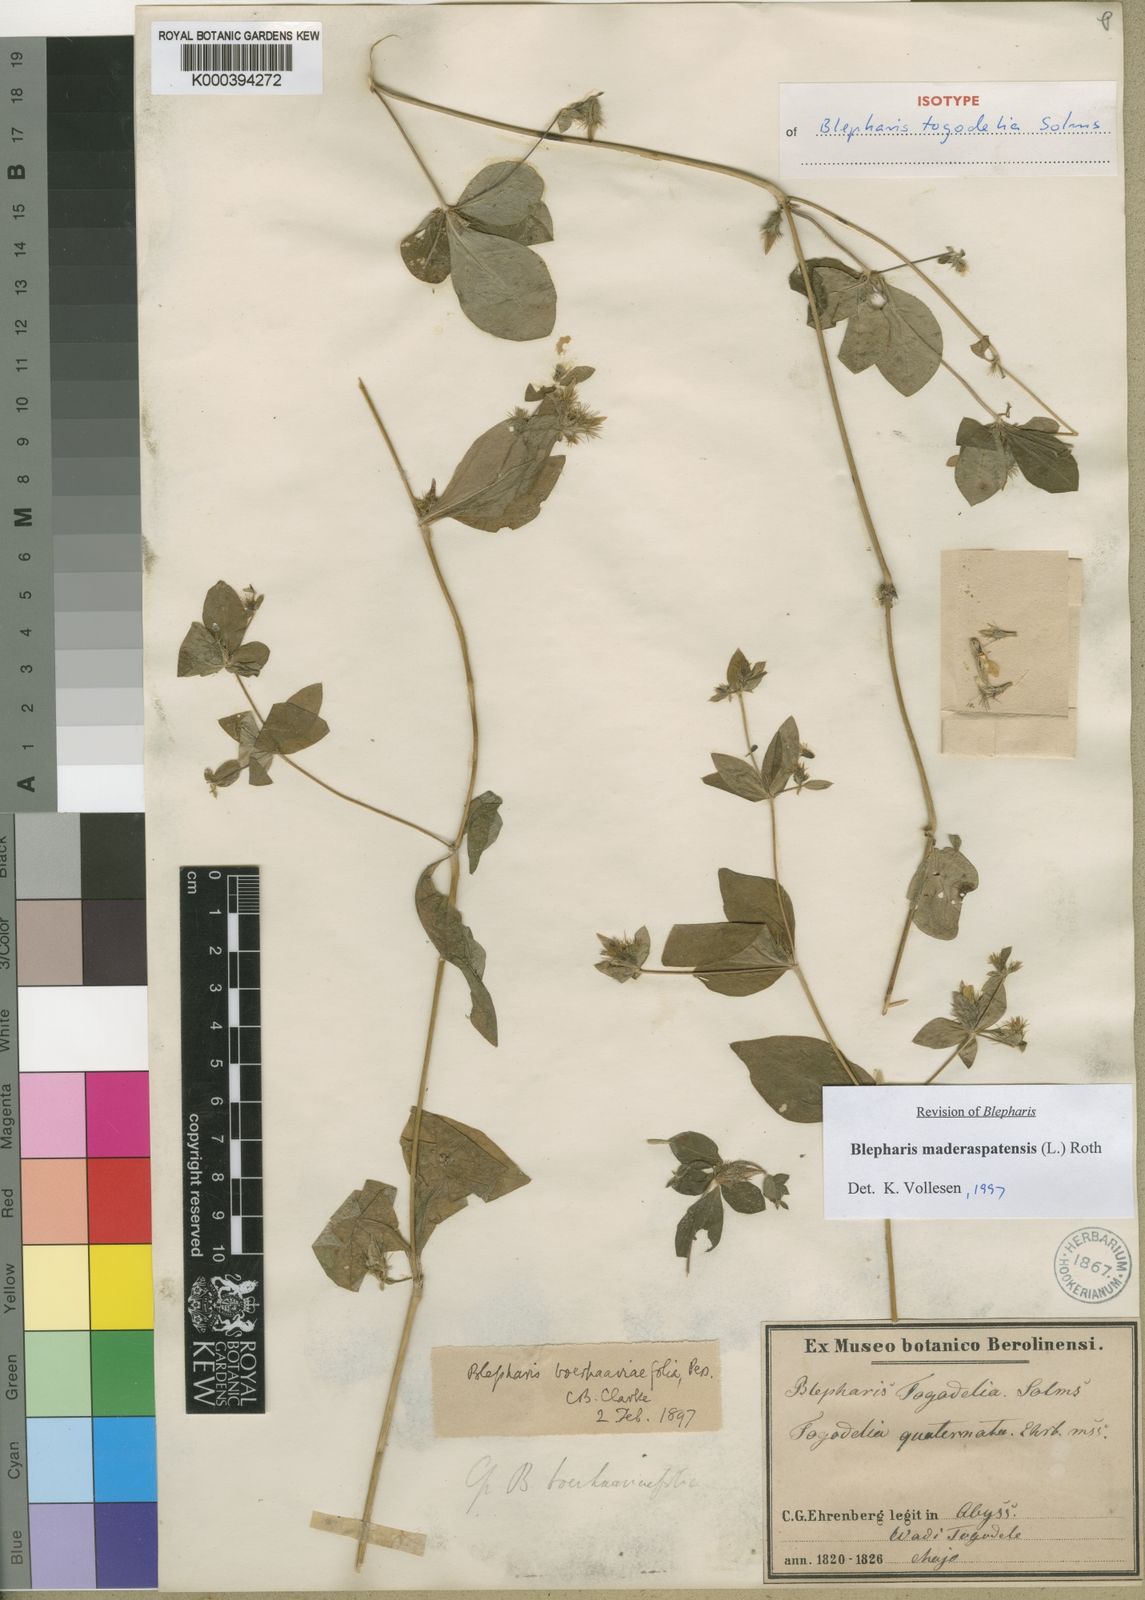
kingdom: Plantae
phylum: Tracheophyta
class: Magnoliopsida
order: Lamiales
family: Acanthaceae
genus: Blepharis
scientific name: Blepharis maderaspatensis
